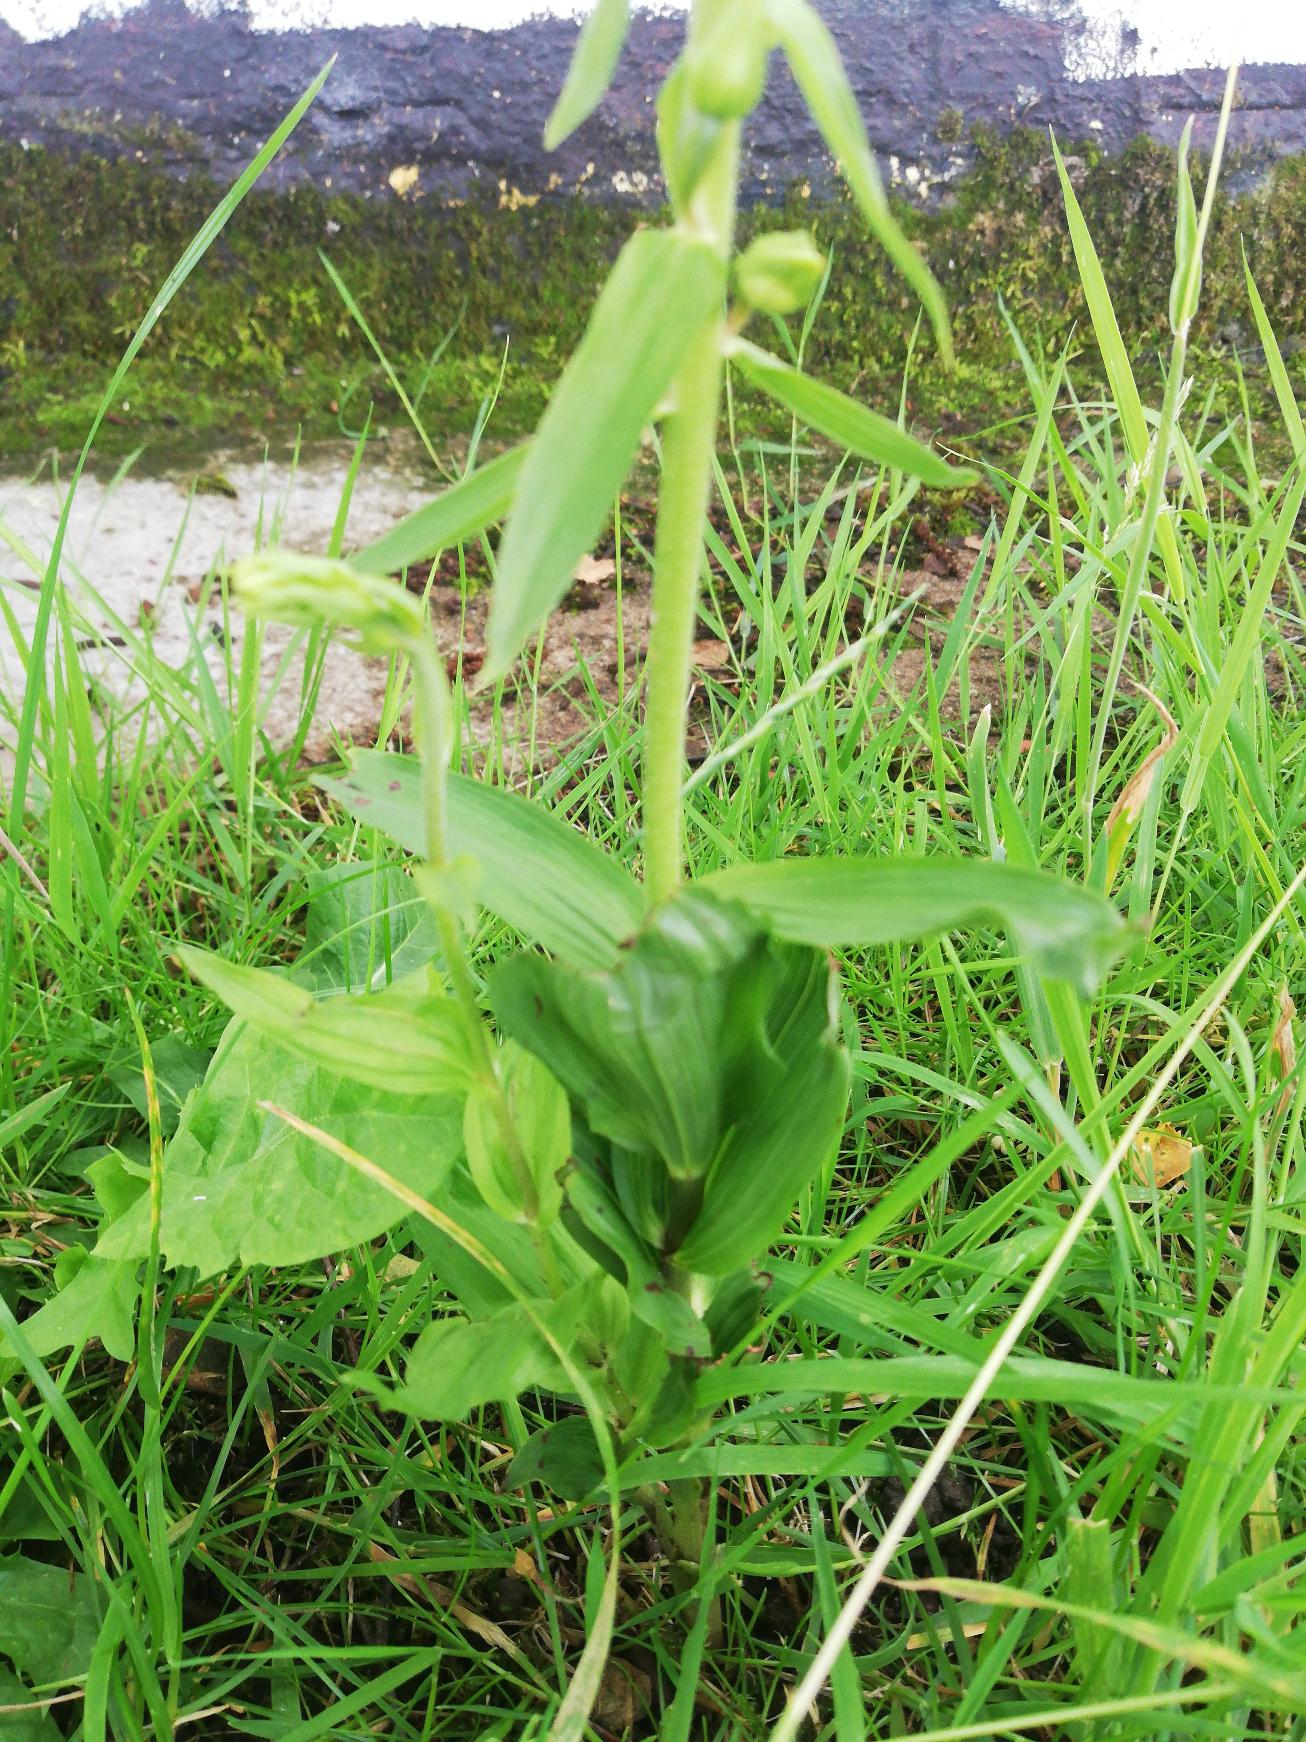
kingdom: Plantae
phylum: Tracheophyta
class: Liliopsida
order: Asparagales
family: Orchidaceae
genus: Epipactis
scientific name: Epipactis helleborine
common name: Skov-hullæbe
